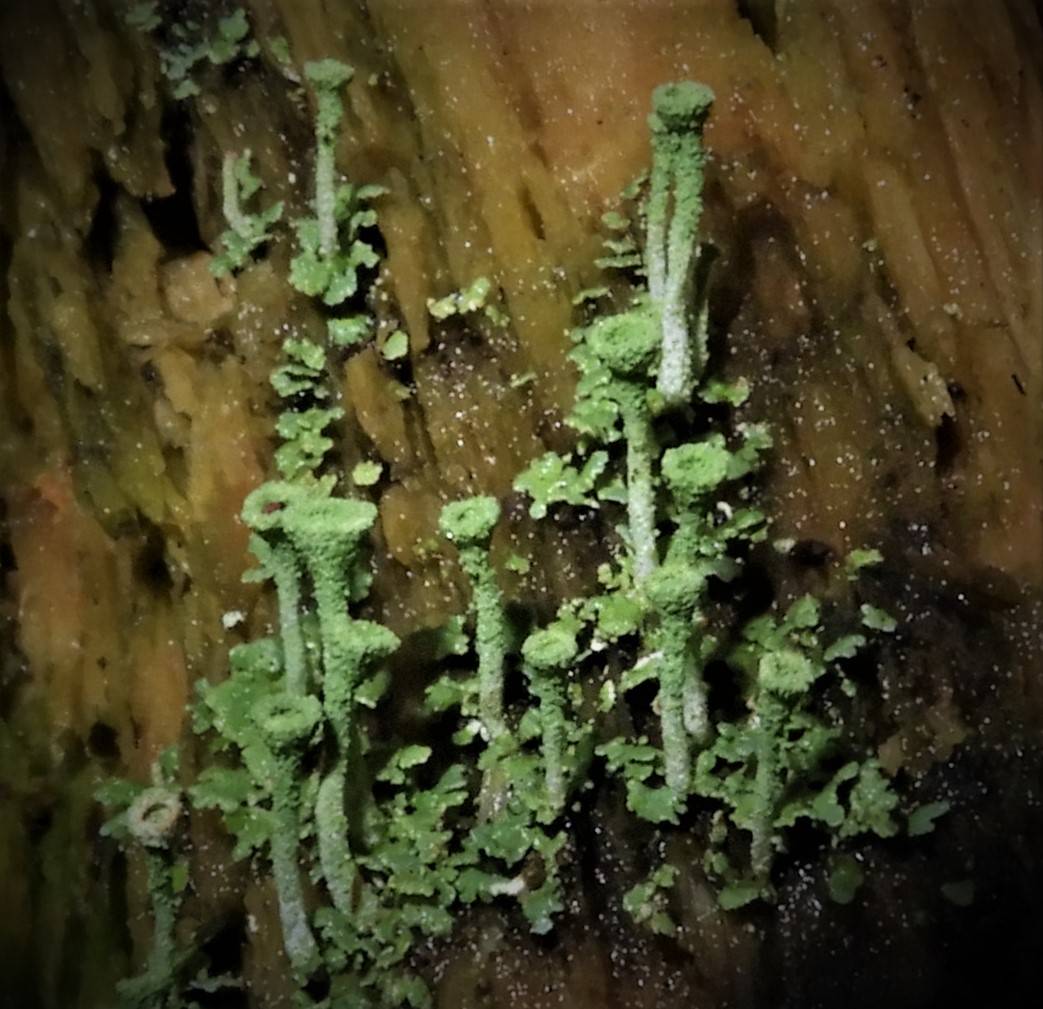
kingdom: Fungi
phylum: Ascomycota
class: Lecanoromycetes
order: Lecanorales
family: Cladoniaceae
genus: Cladonia
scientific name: Cladonia fimbriata
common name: bleggrøn bægerlav
